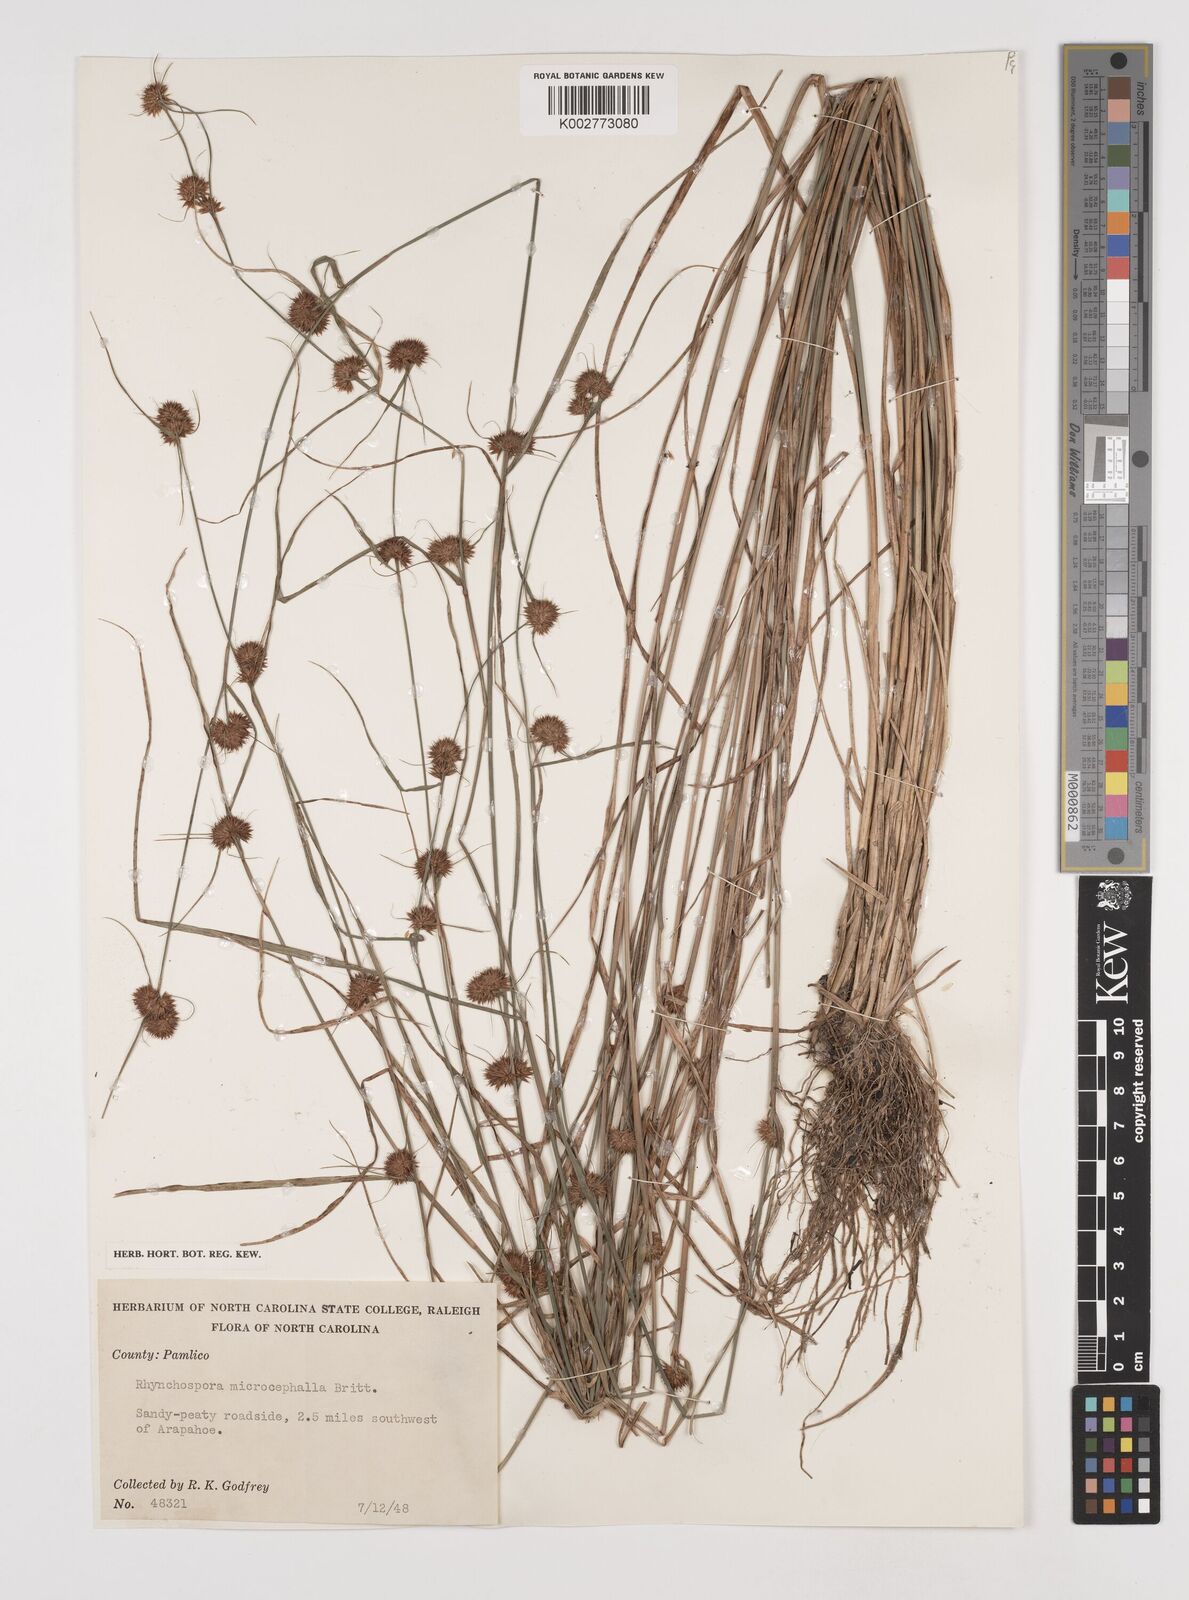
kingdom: Plantae
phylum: Tracheophyta
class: Liliopsida
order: Poales
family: Cyperaceae
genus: Rhynchospora
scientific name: Rhynchospora microcephala
